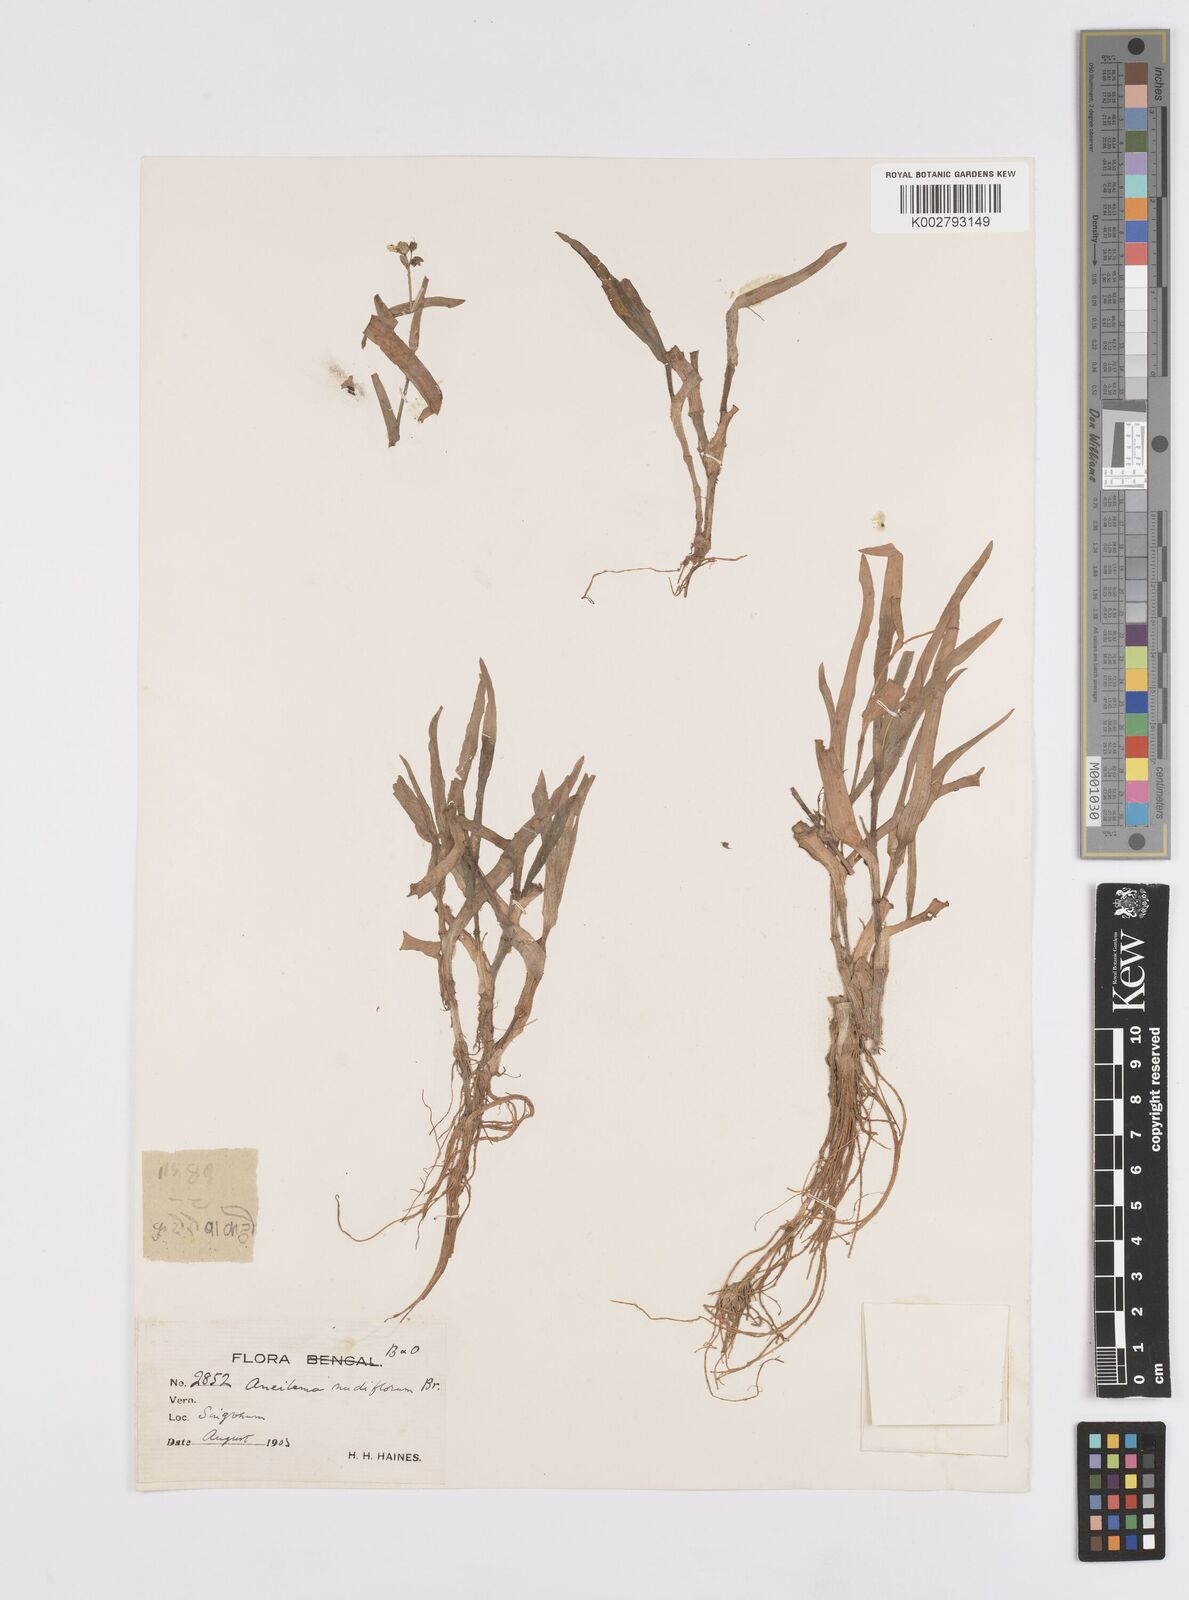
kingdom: Plantae
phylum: Tracheophyta
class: Liliopsida
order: Commelinales
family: Commelinaceae
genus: Murdannia
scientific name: Murdannia nudiflora
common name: Nakedstem dewflower
